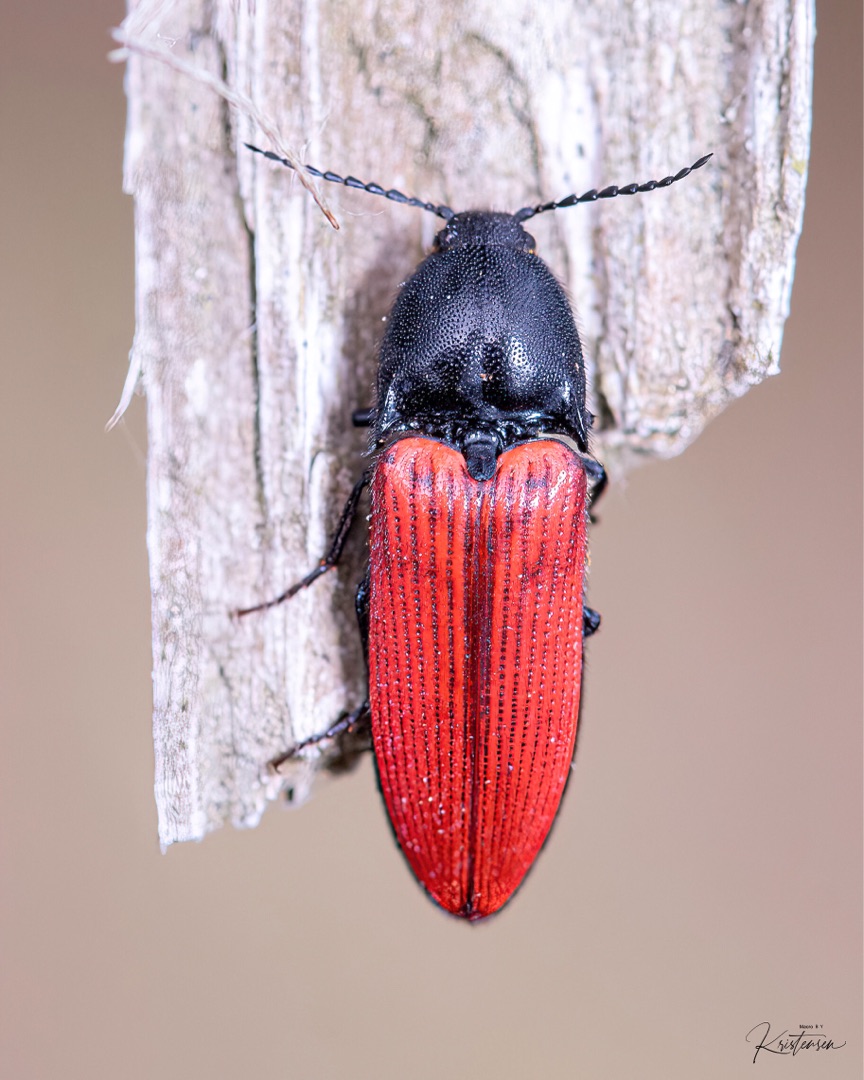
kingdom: Animalia
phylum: Arthropoda
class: Insecta
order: Coleoptera
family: Elateridae
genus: Ampedus
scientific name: Ampedus sanguineus
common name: Stor skovsmælder
